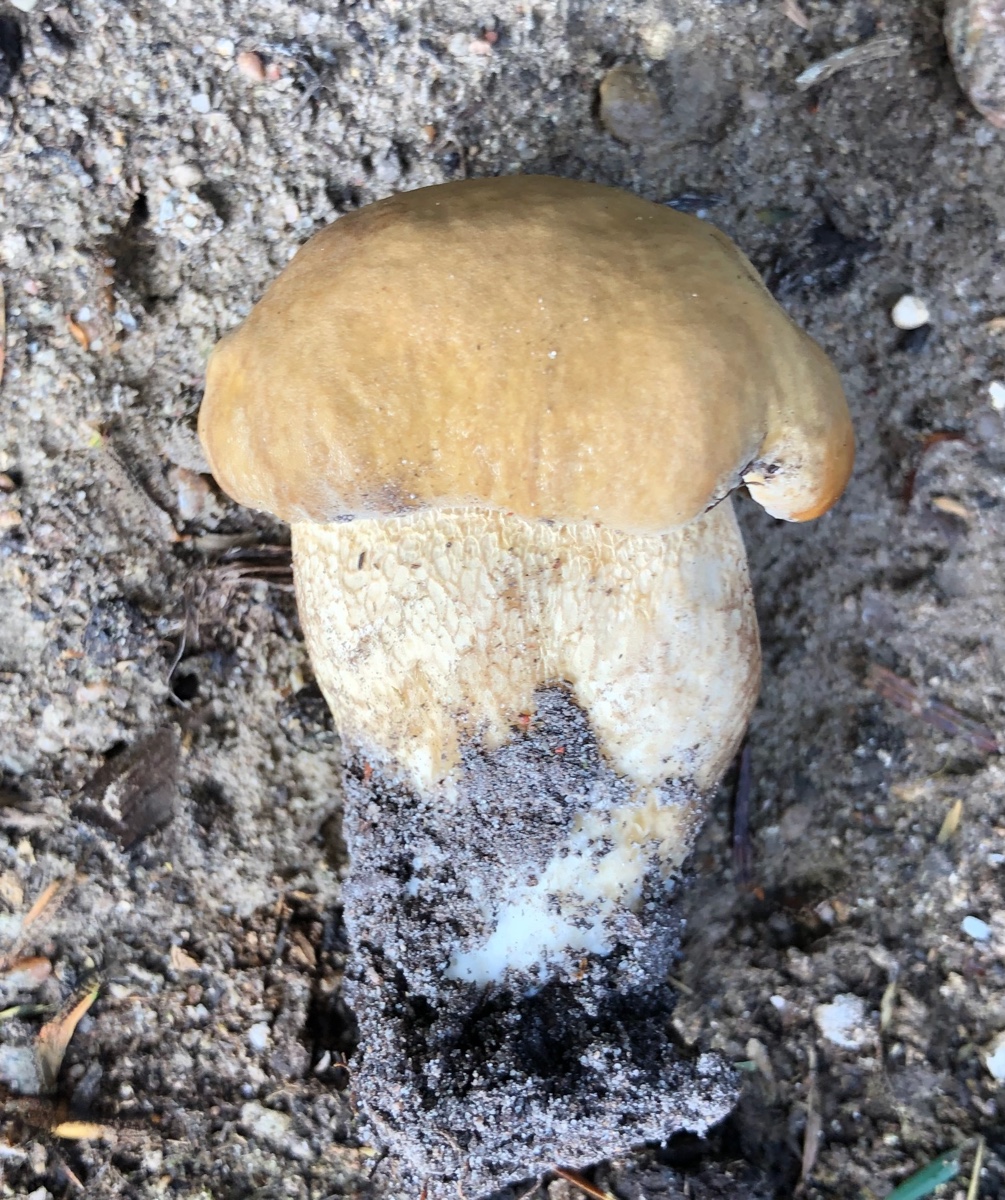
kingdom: Fungi
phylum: Basidiomycota
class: Agaricomycetes
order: Boletales
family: Boletaceae
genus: Boletus
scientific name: Boletus reticulatus
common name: sommer-rørhat
